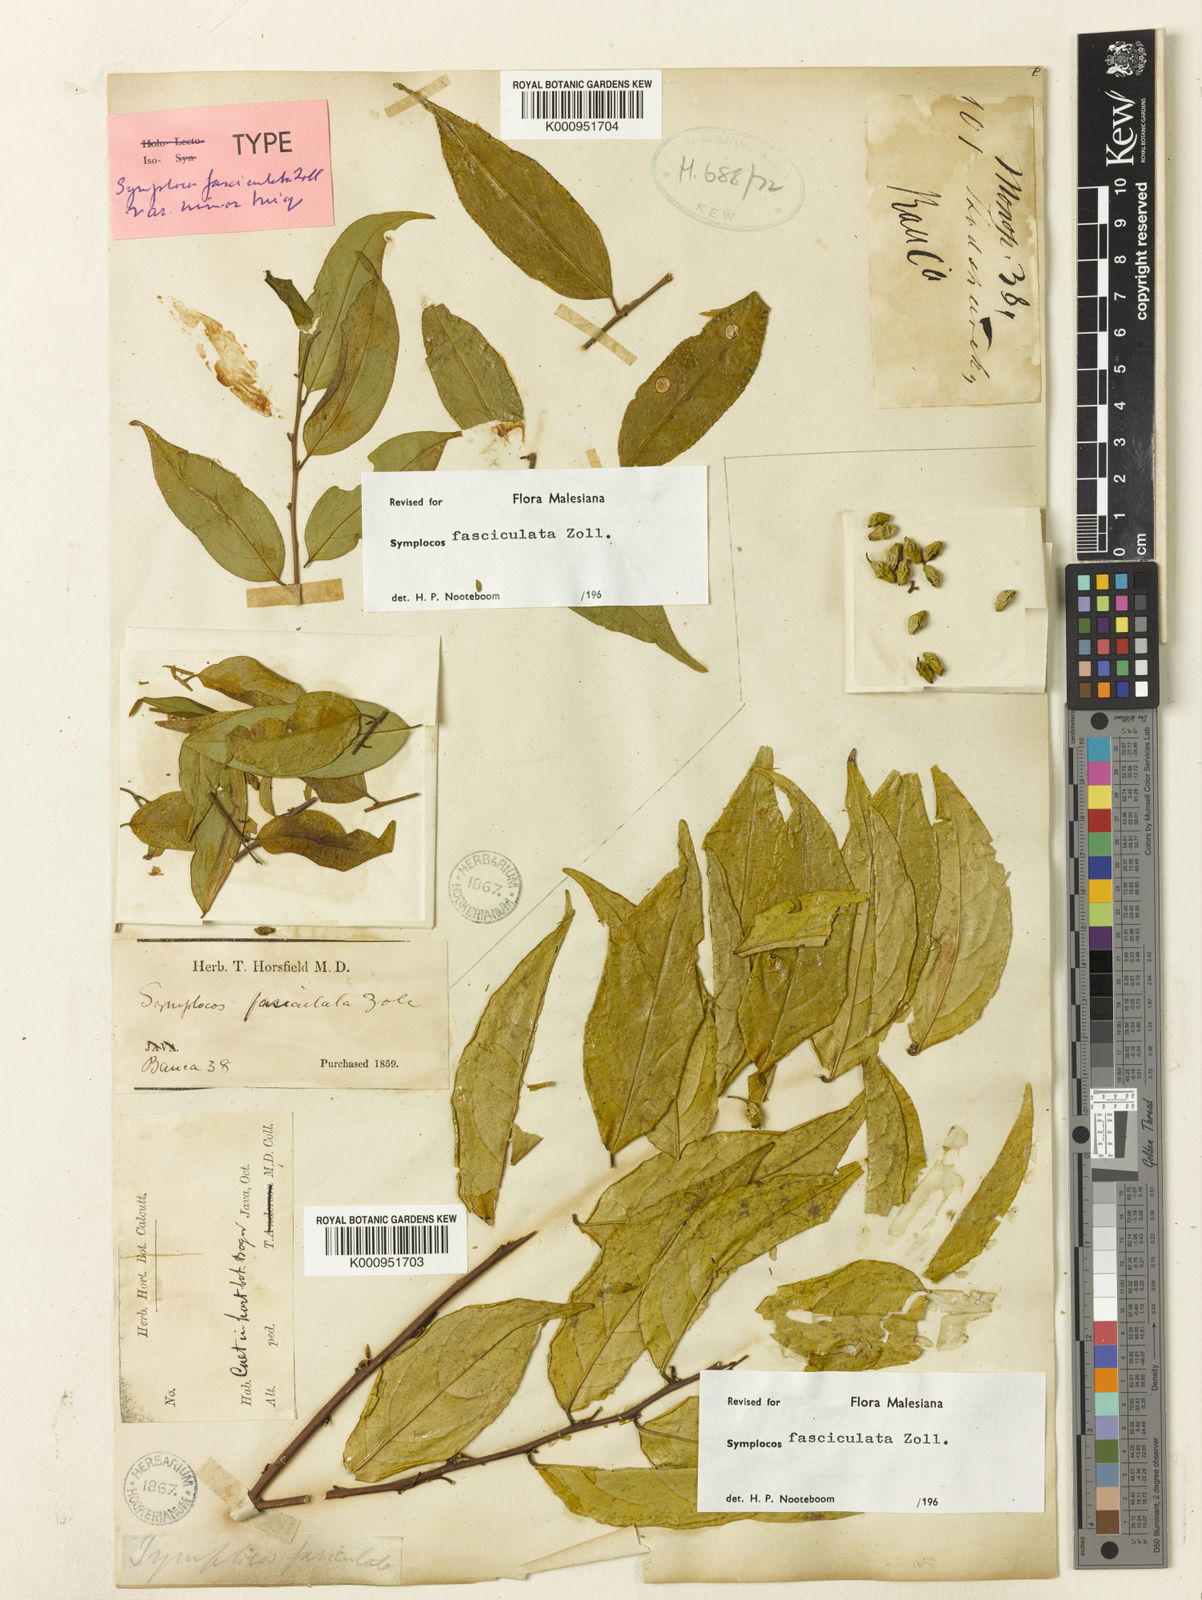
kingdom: Plantae
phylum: Tracheophyta
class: Magnoliopsida
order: Ericales
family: Symplocaceae
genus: Symplocos
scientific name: Symplocos fasciculata
